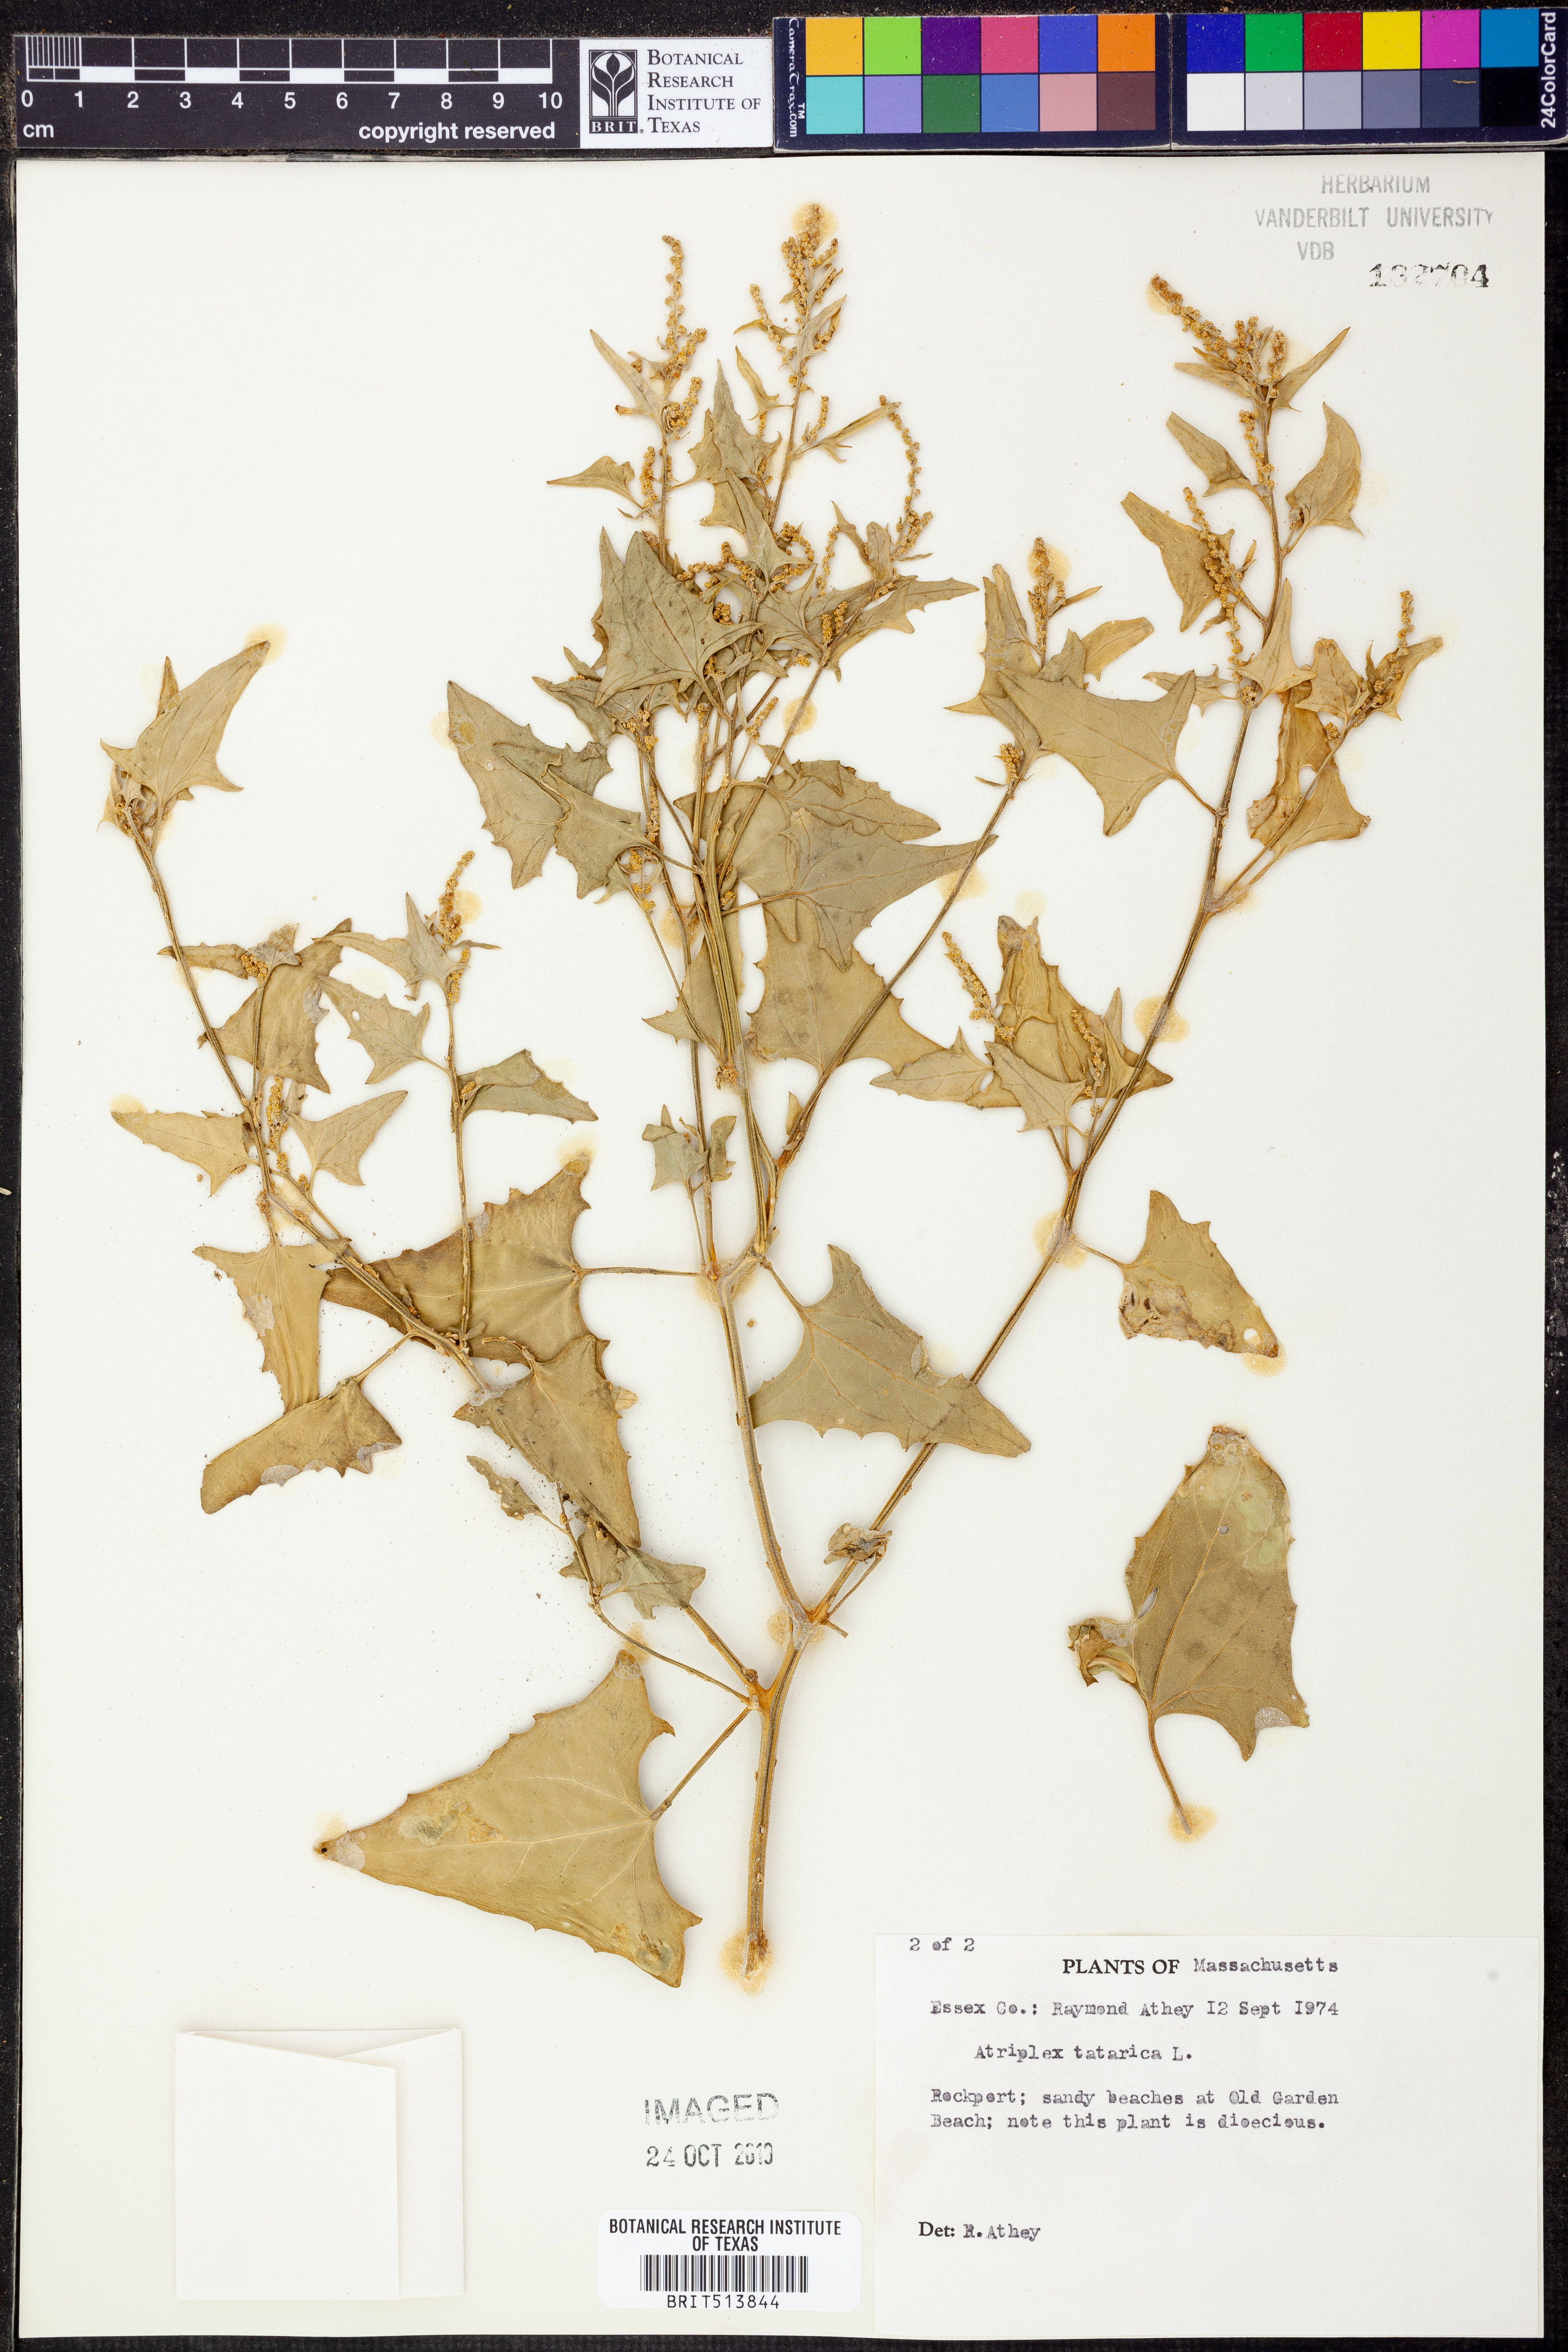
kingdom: Plantae
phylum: Tracheophyta
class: Magnoliopsida
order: Caryophyllales
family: Amaranthaceae
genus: Atriplex
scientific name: Atriplex tatarica
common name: Tatarian orache
